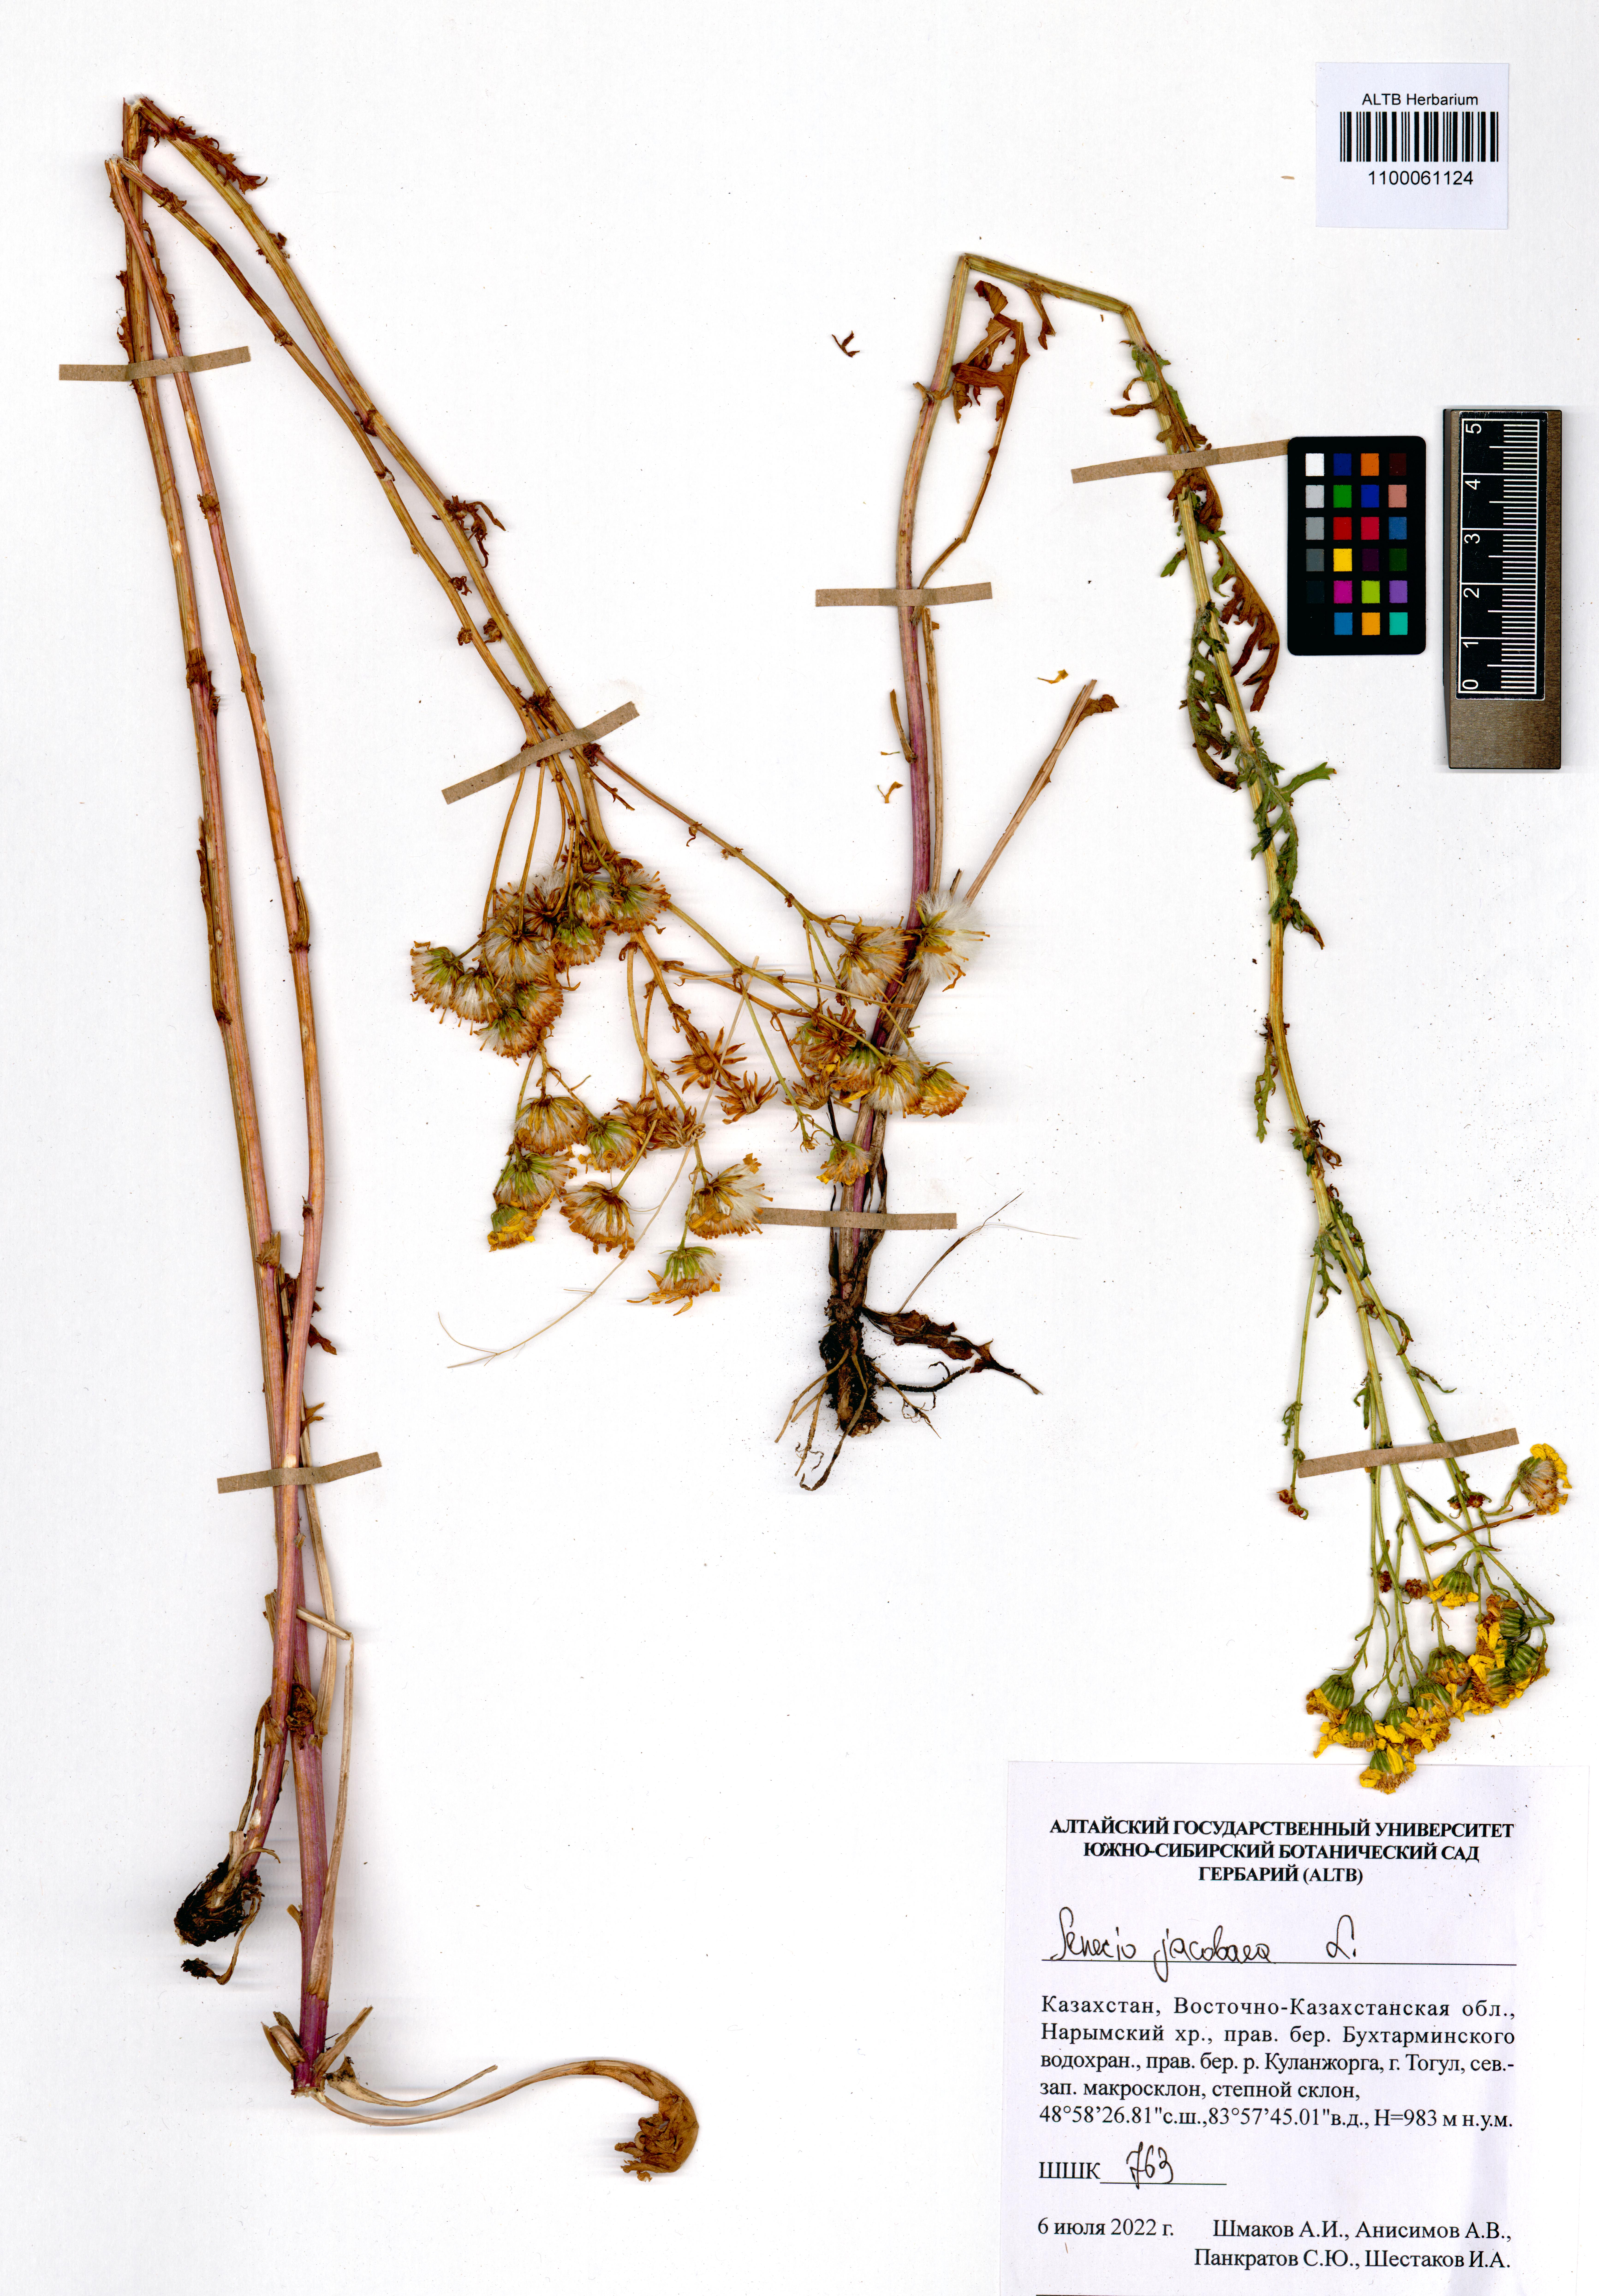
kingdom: Plantae
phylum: Tracheophyta
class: Magnoliopsida
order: Asterales
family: Asteraceae
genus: Jacobaea
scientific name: Jacobaea vulgaris
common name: Stinking willie
